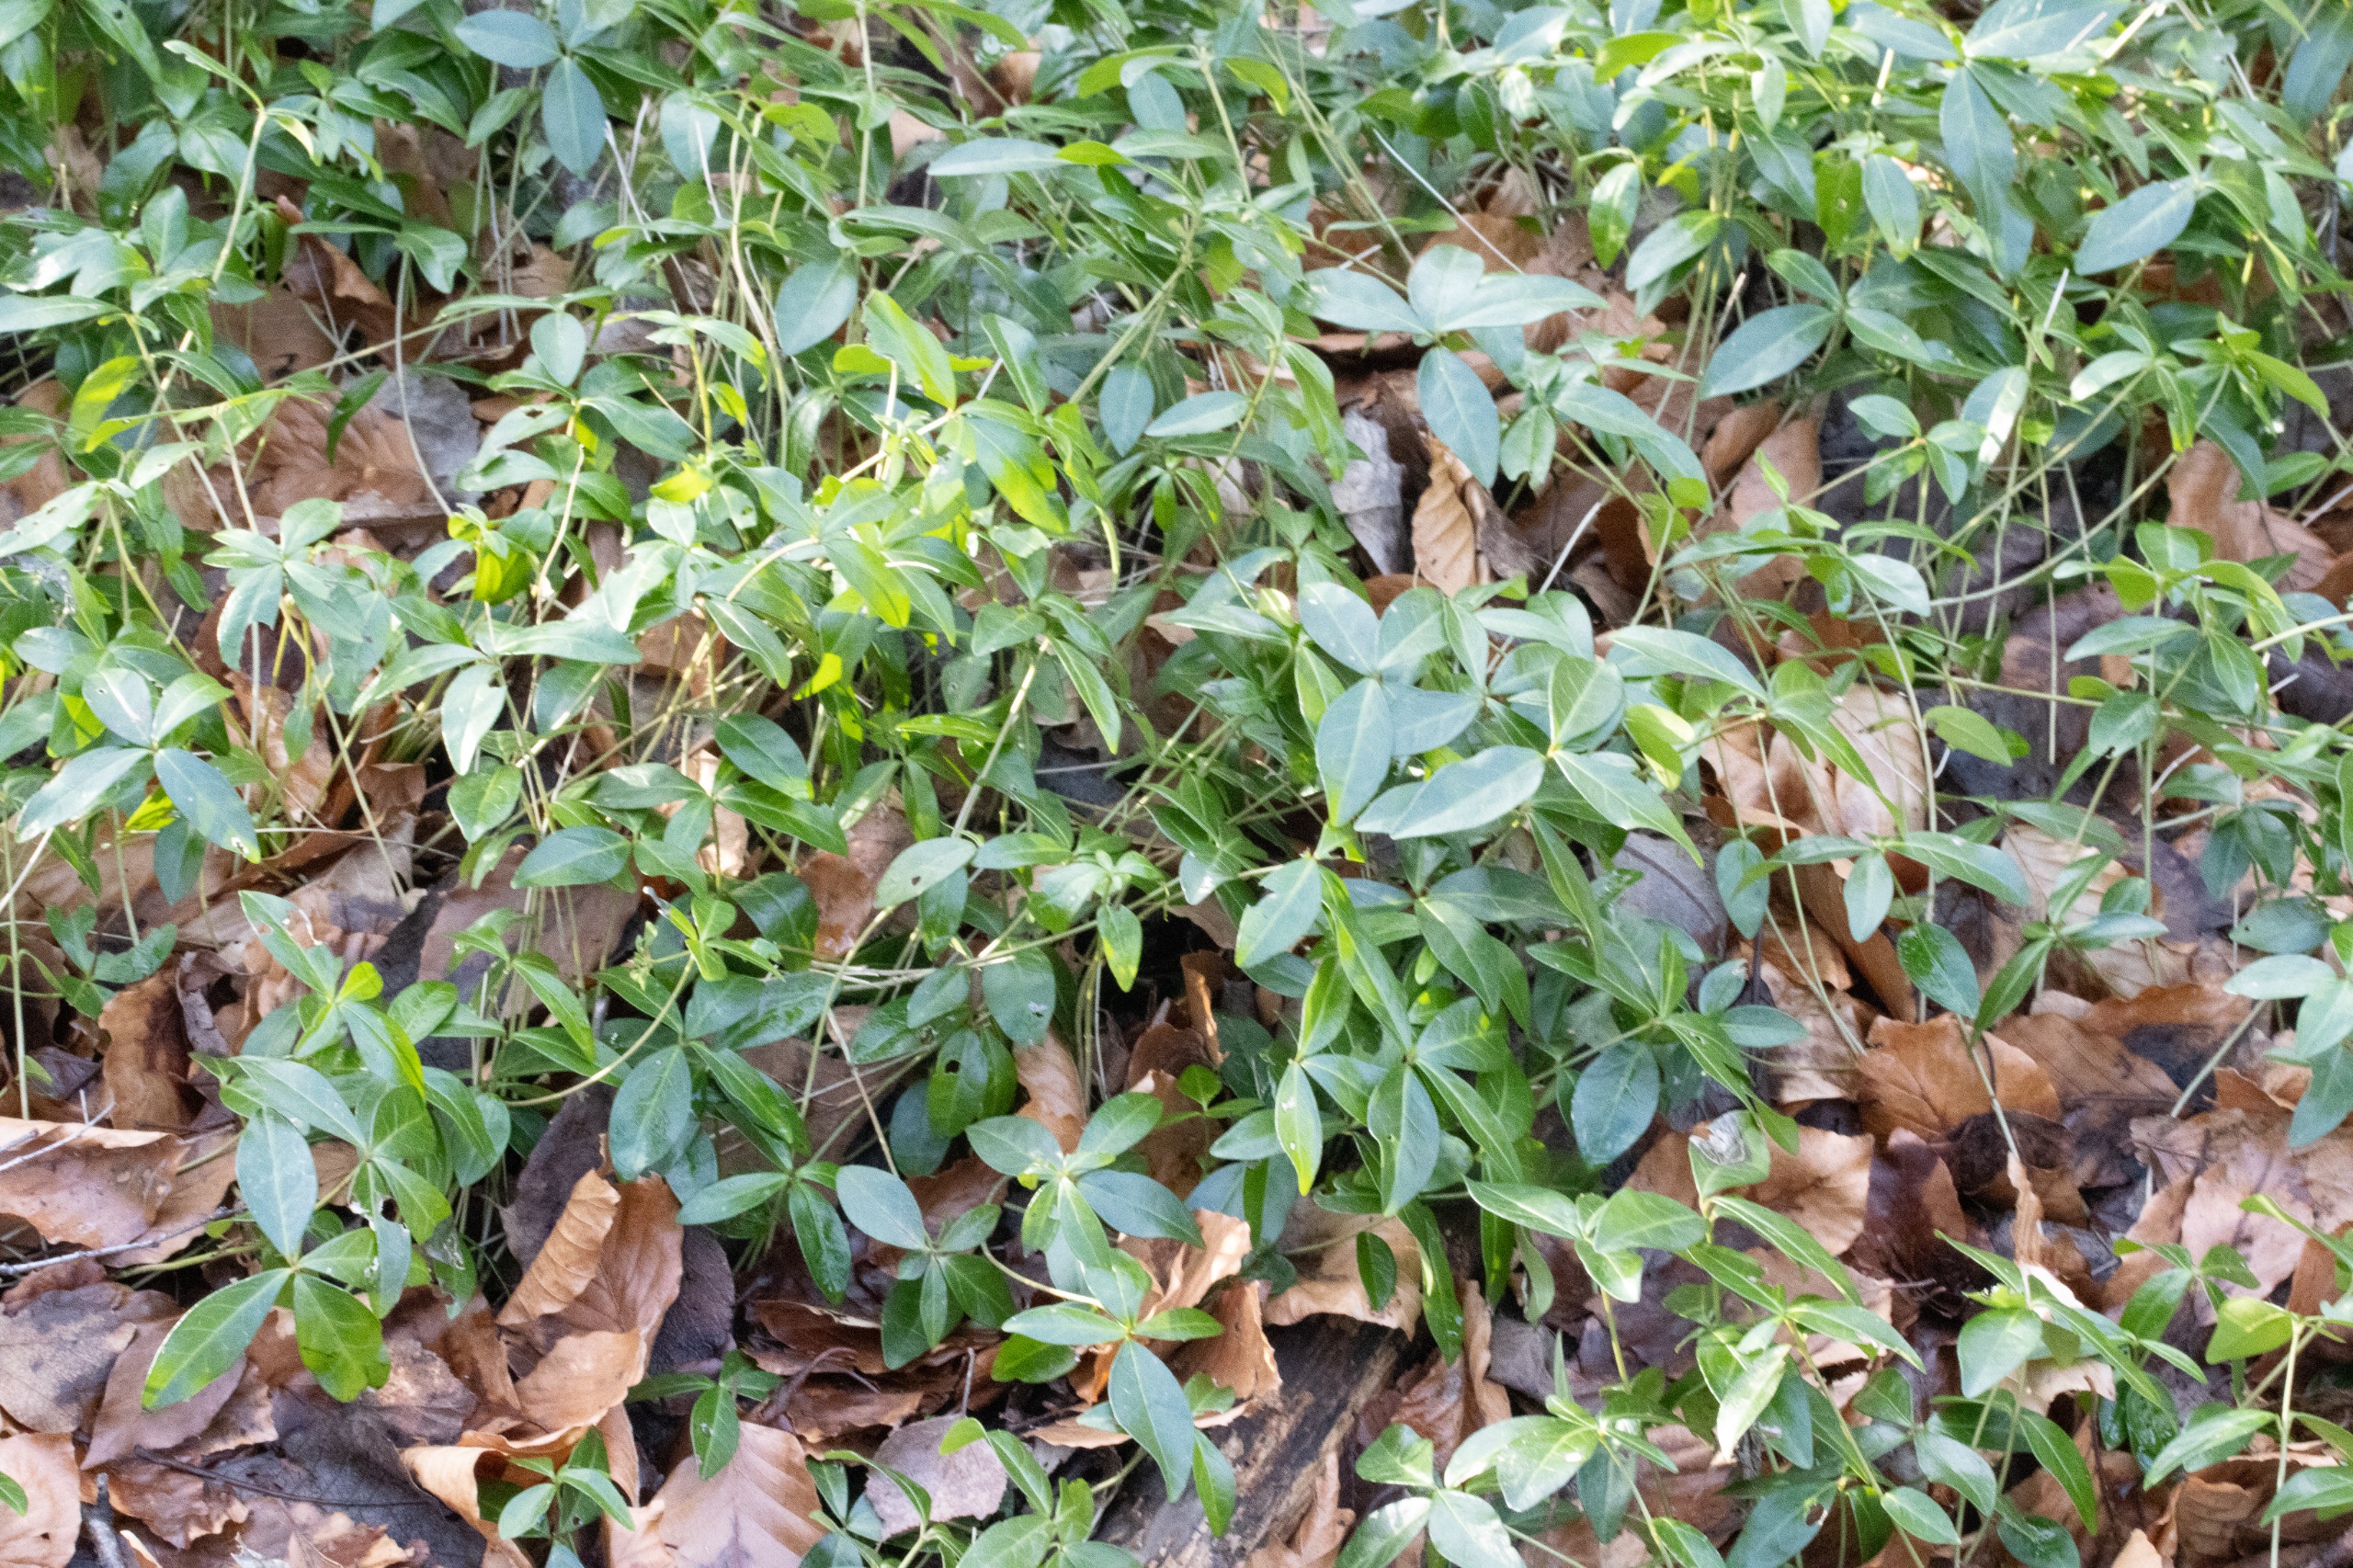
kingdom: Plantae
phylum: Tracheophyta
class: Magnoliopsida
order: Gentianales
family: Apocynaceae
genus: Vinca
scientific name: Vinca minor
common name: Liden singrøn
